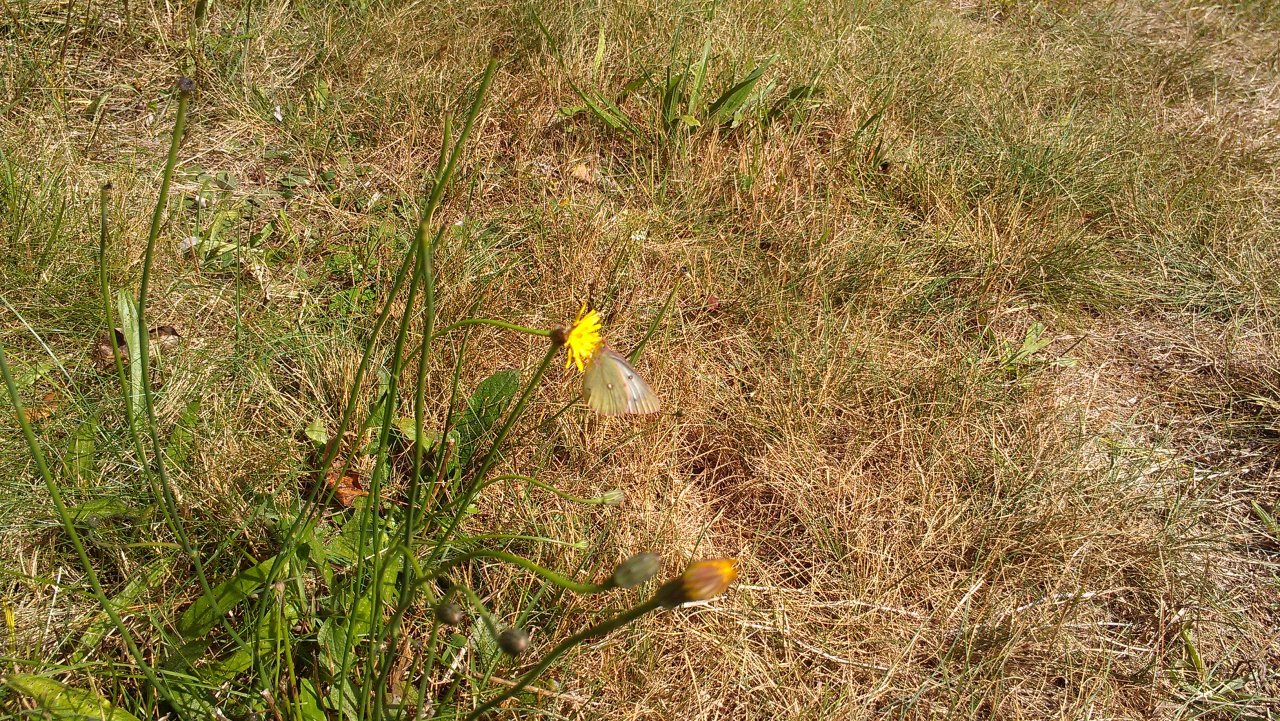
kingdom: Animalia
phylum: Arthropoda
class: Insecta
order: Lepidoptera
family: Pieridae
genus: Colias
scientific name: Colias philodice
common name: Clouded Sulphur
